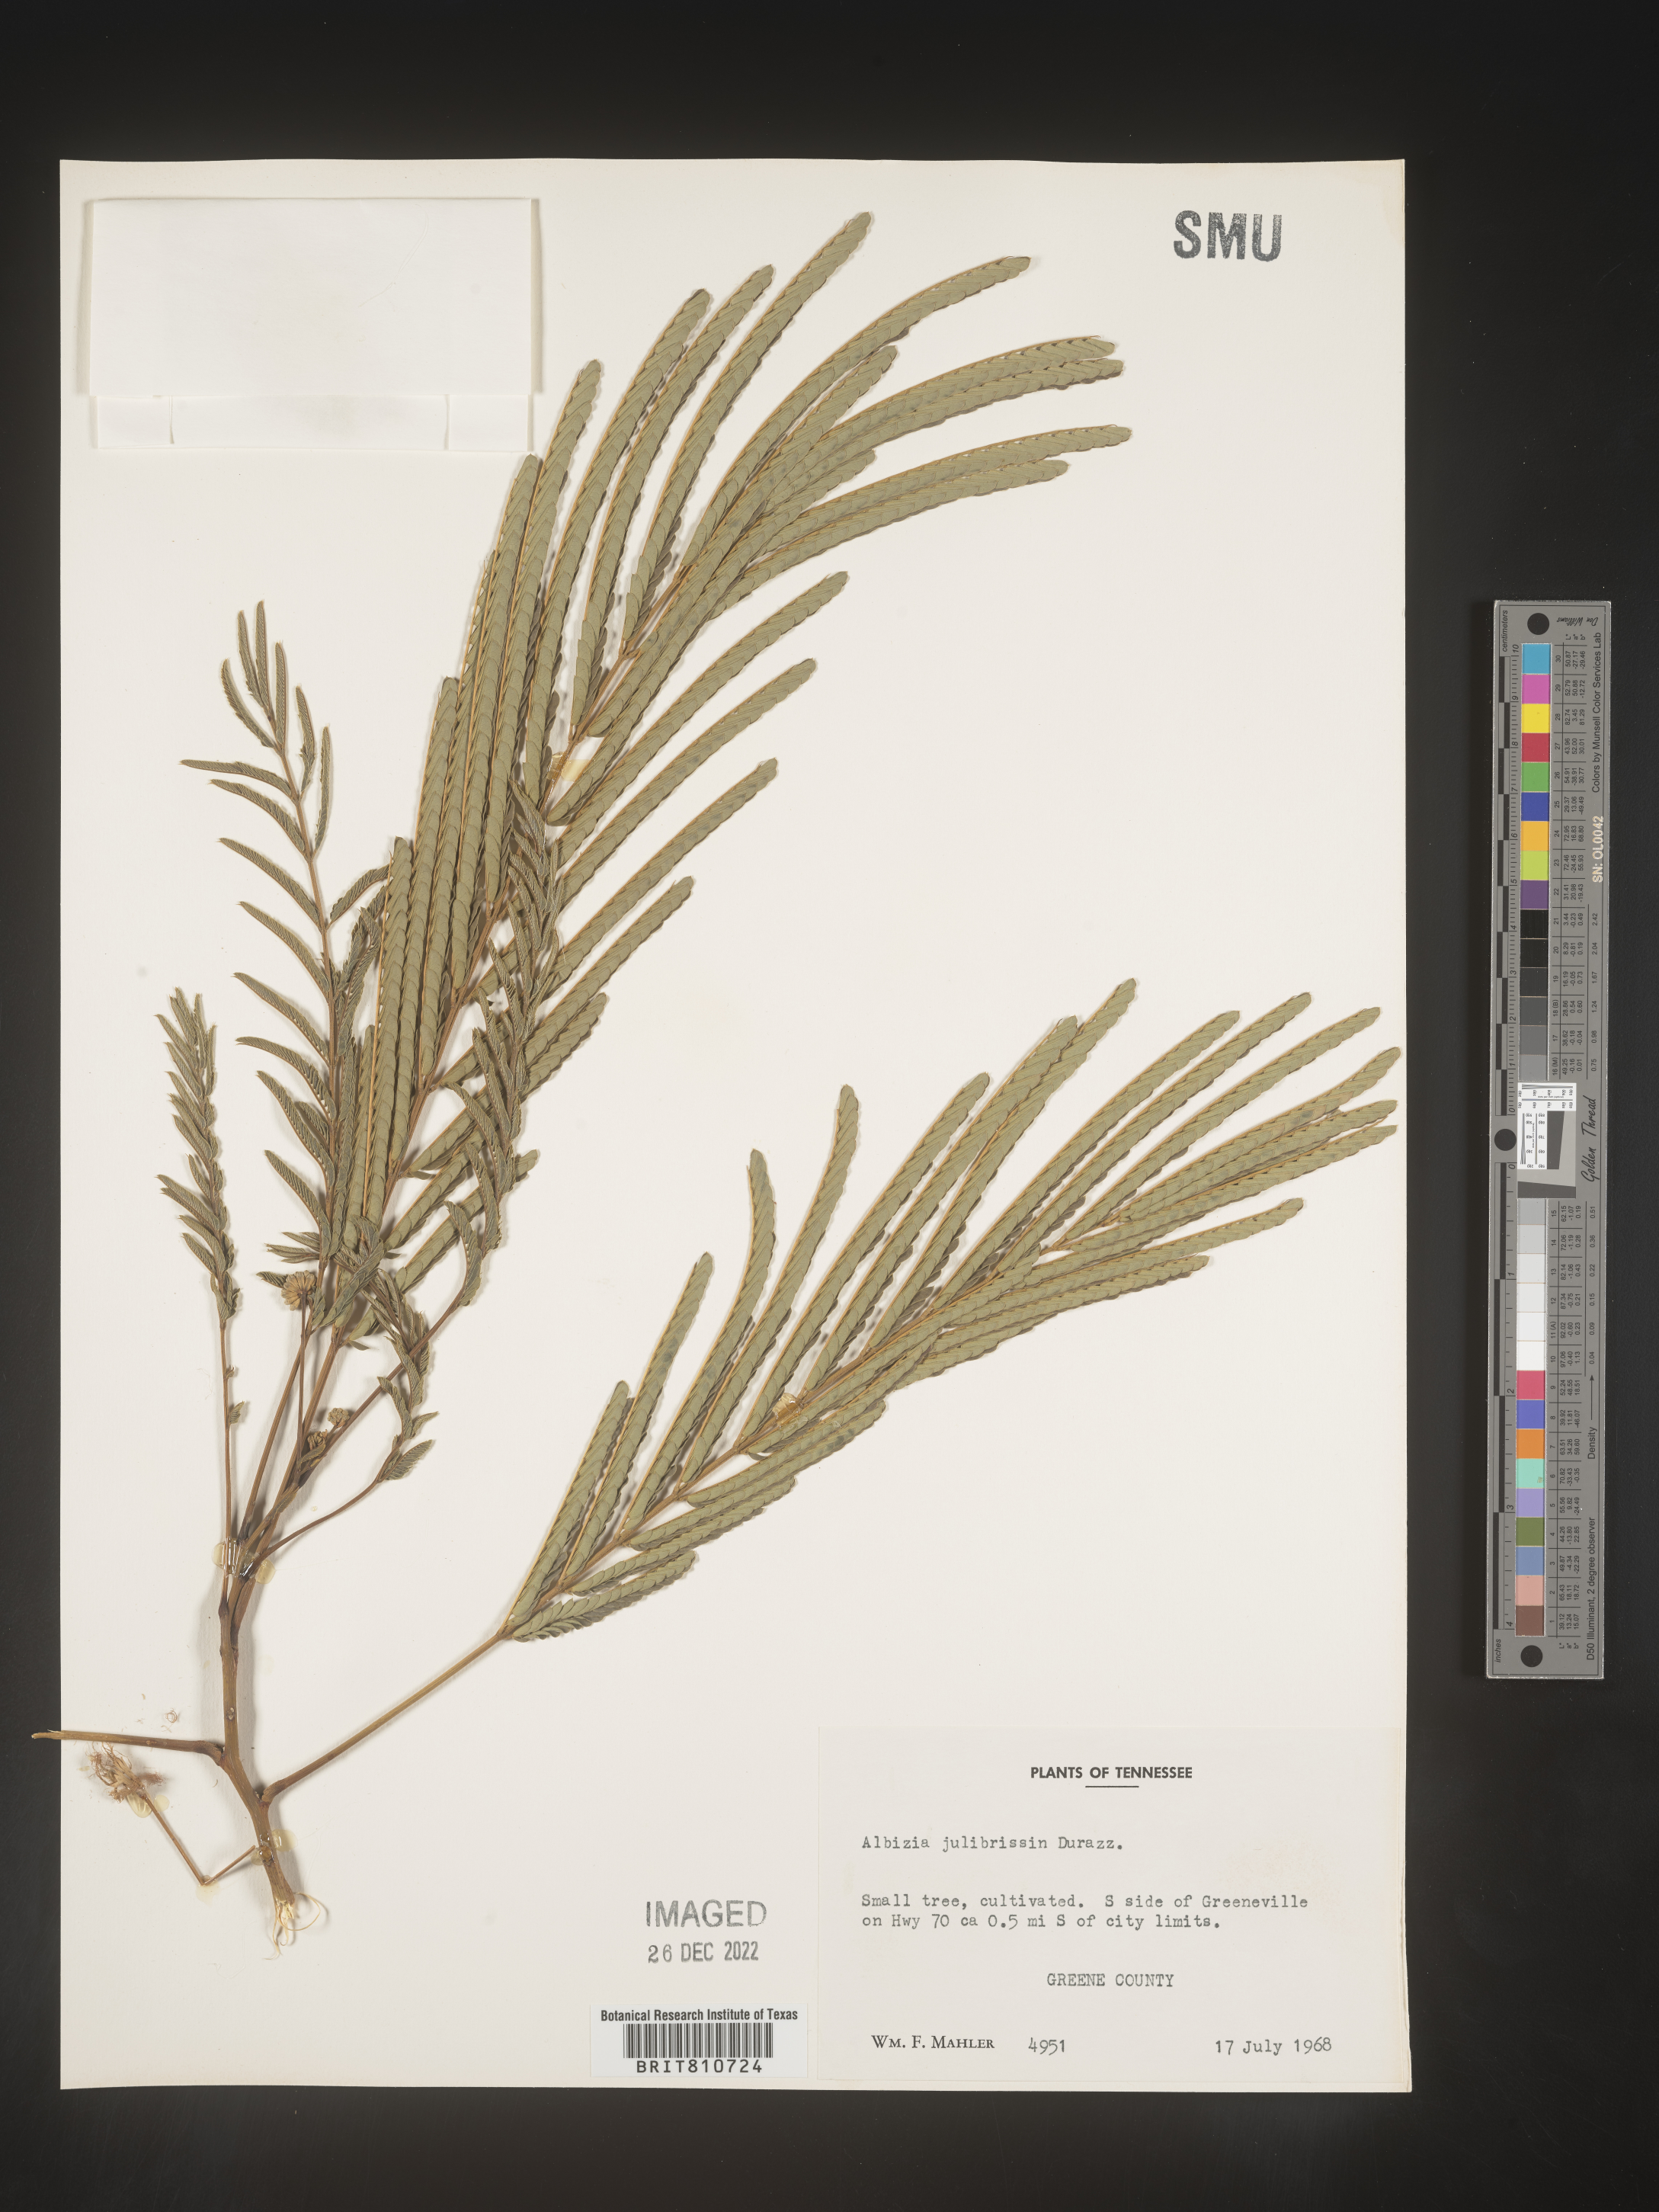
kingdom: Plantae
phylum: Tracheophyta
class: Magnoliopsida
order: Fabales
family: Fabaceae
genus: Albizia
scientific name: Albizia
